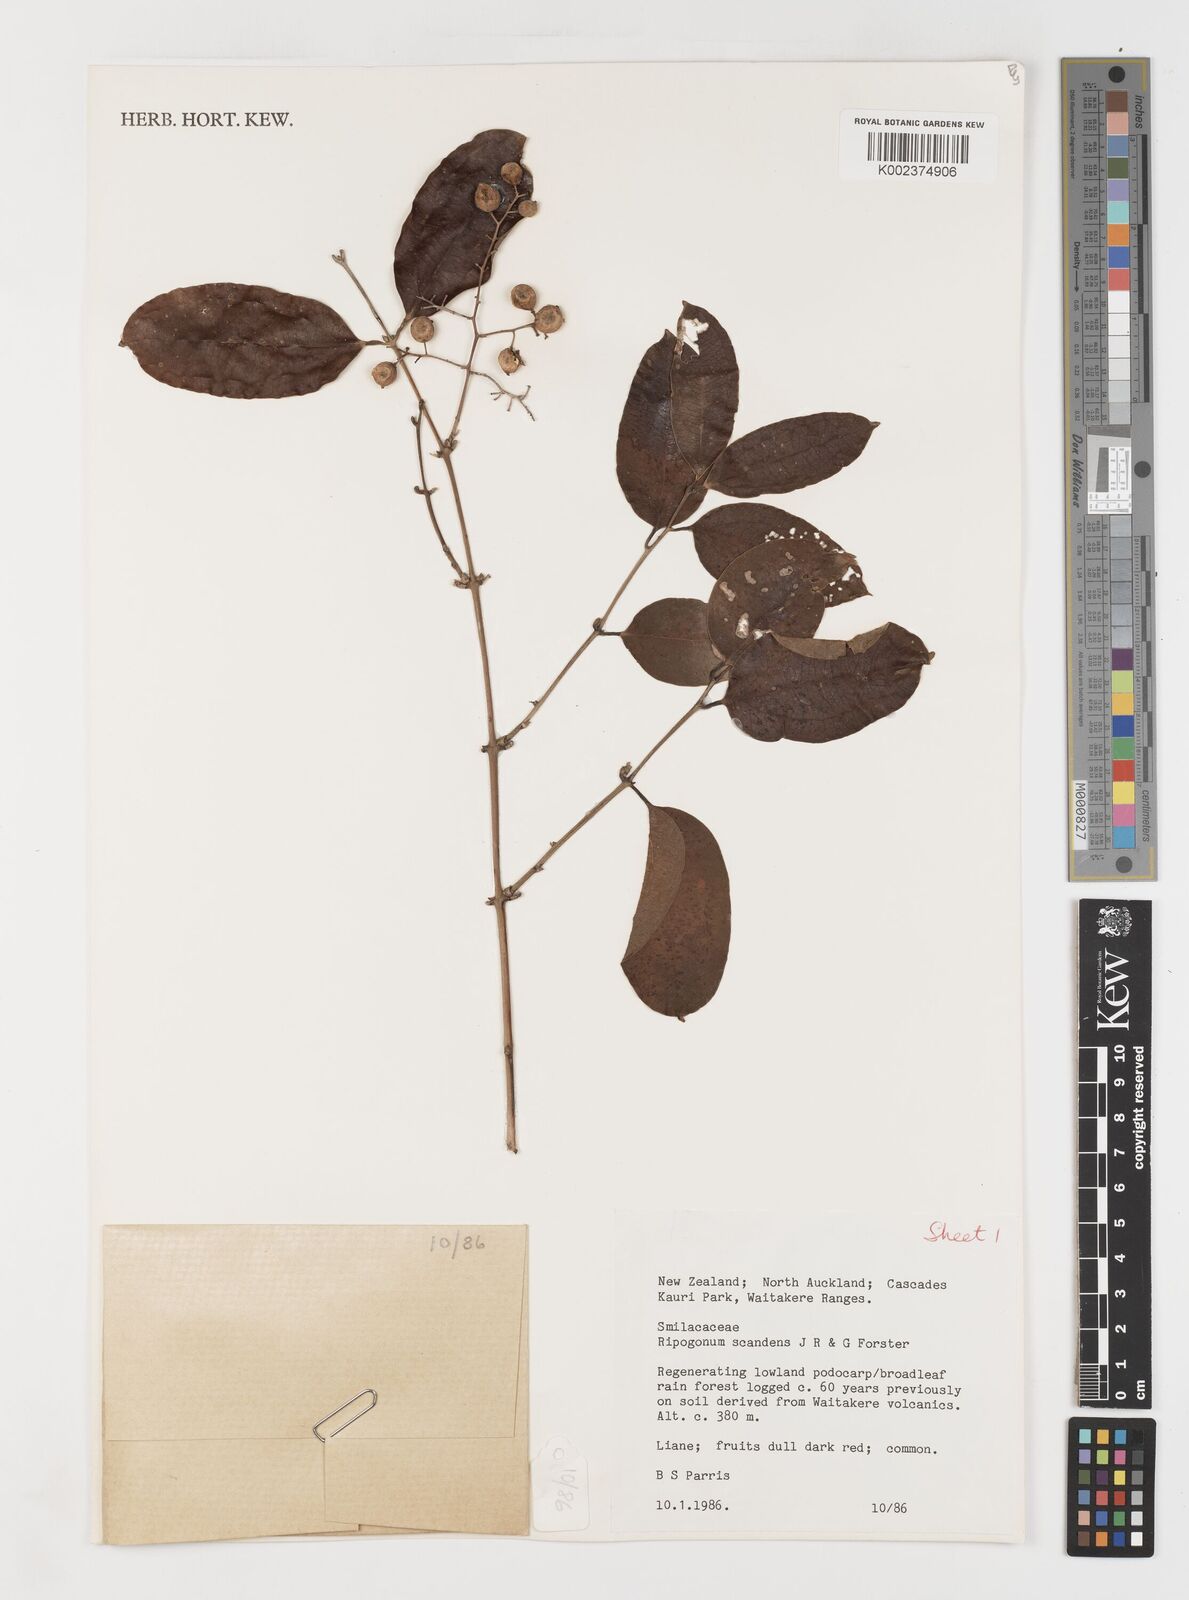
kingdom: Plantae
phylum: Tracheophyta
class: Liliopsida
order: Liliales
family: Ripogonaceae
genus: Ripogonum
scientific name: Ripogonum scandens
